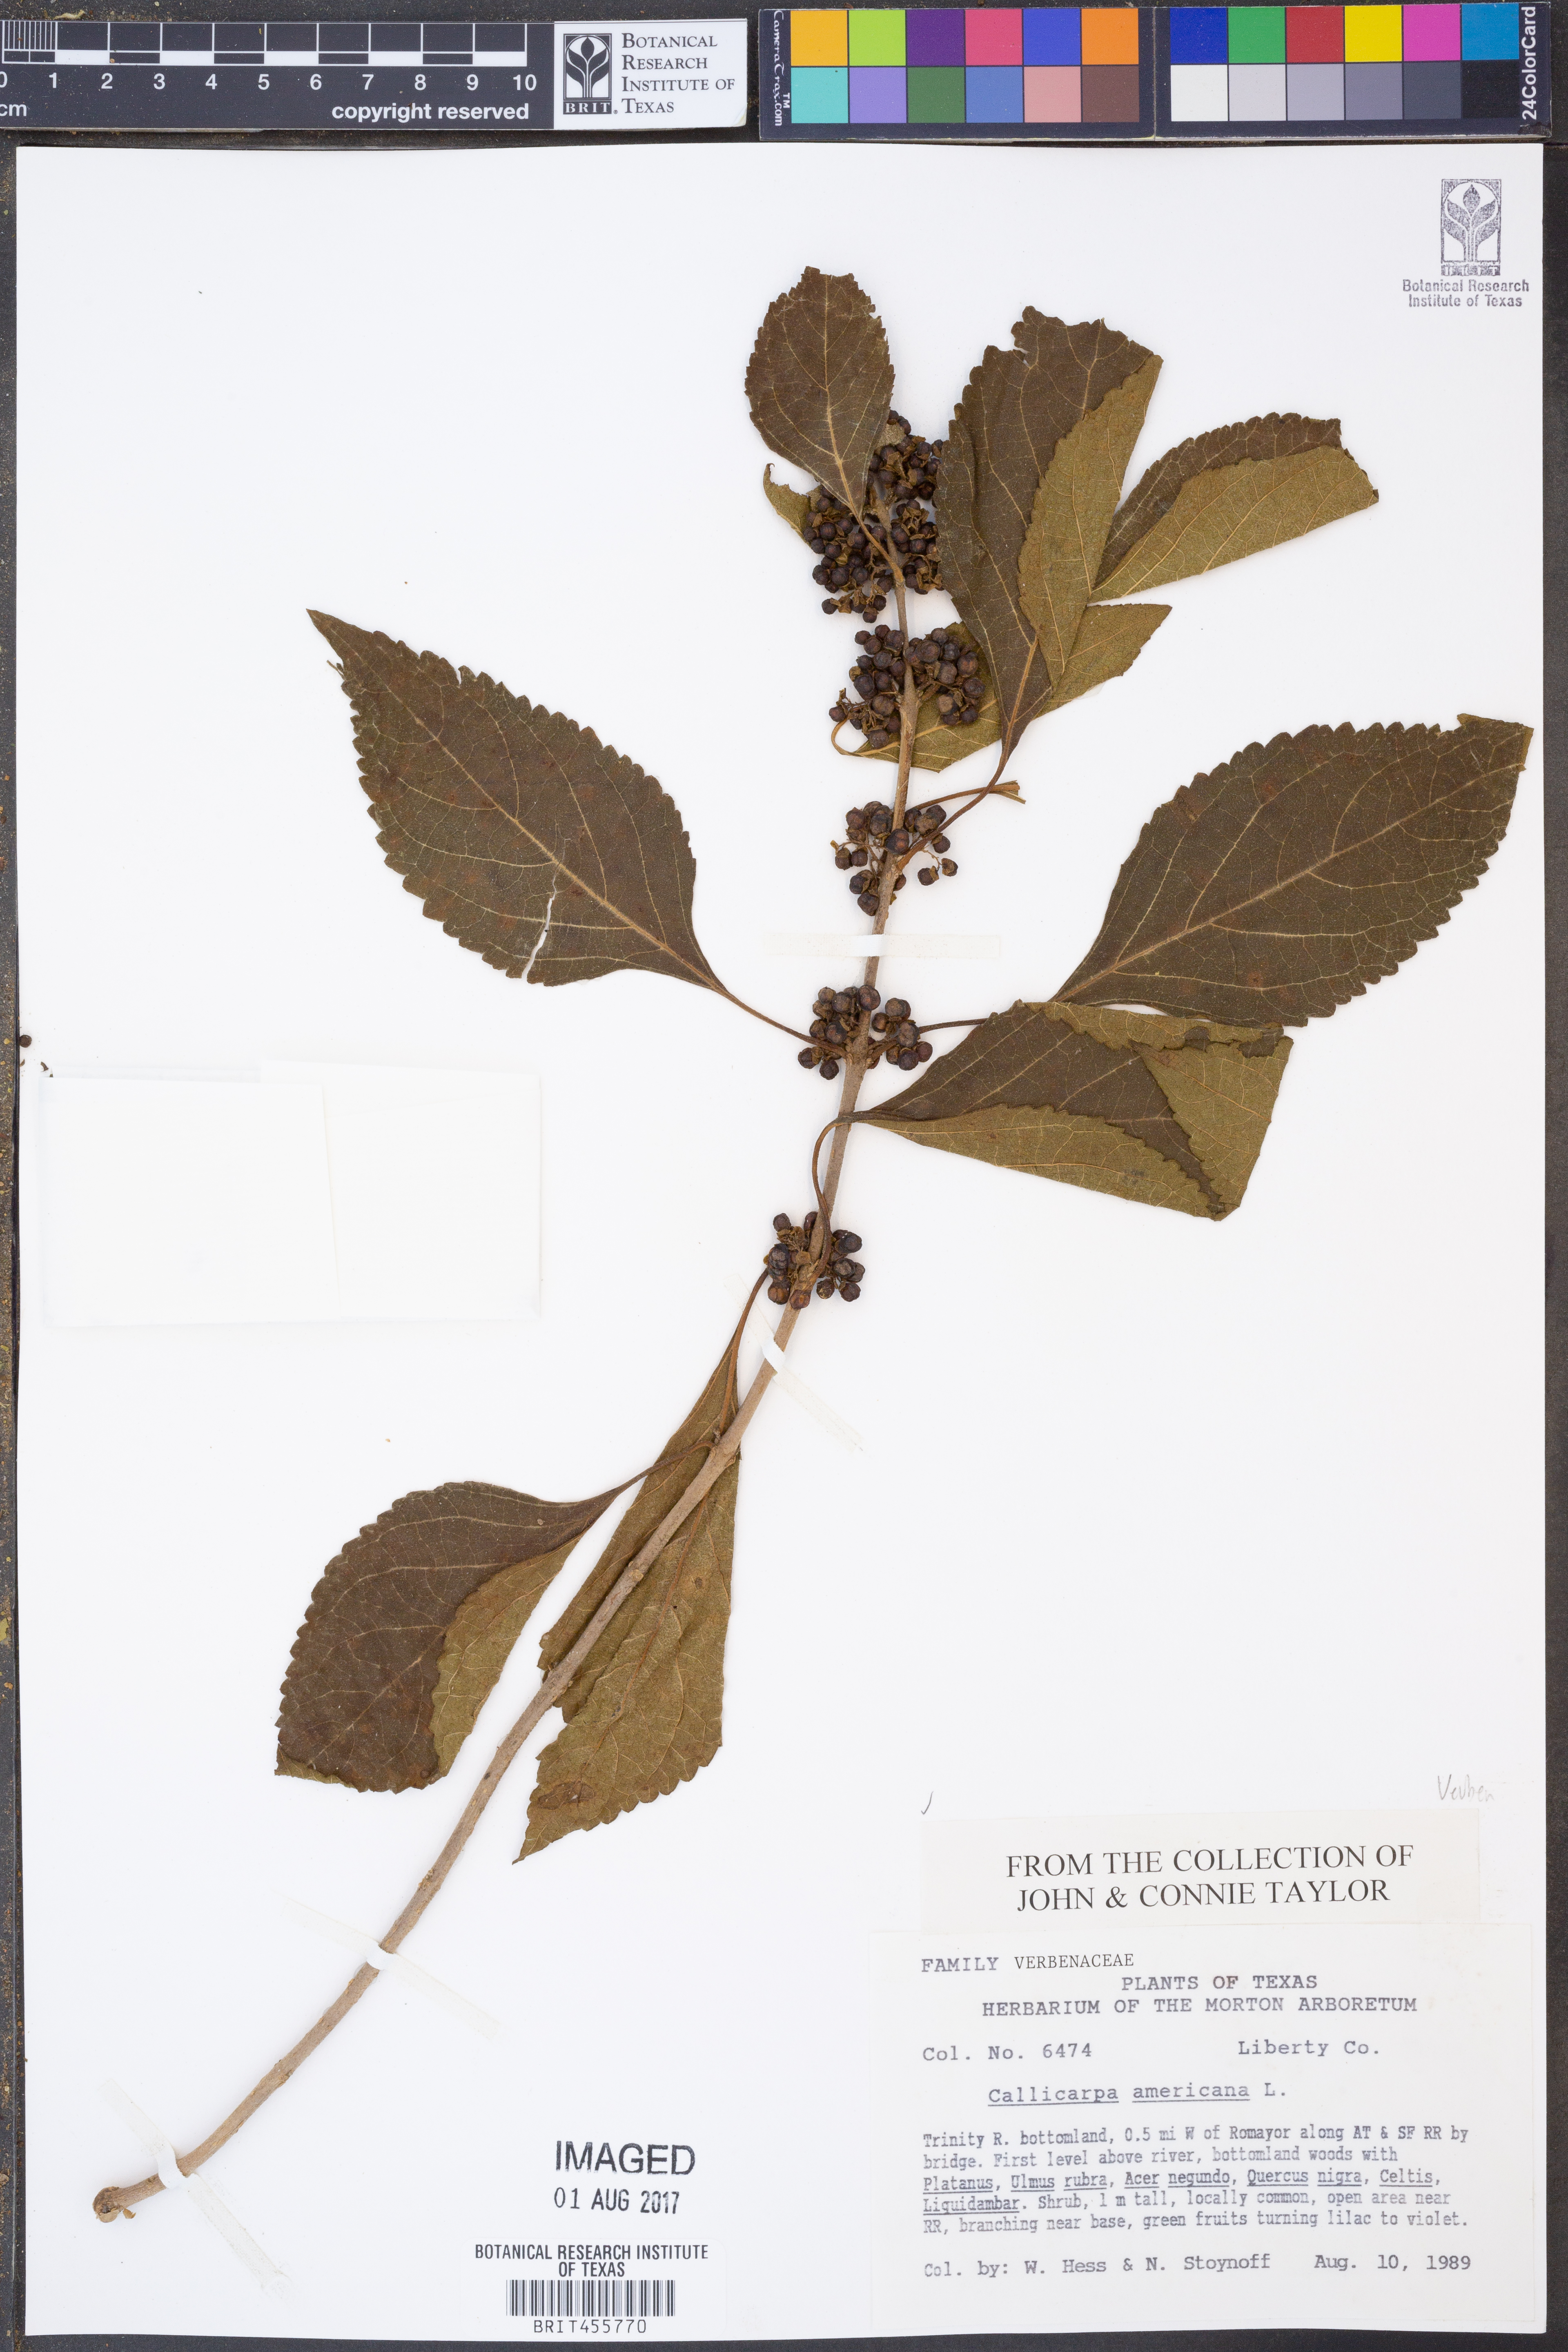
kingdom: Plantae
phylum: Tracheophyta
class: Magnoliopsida
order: Lamiales
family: Lamiaceae
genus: Callicarpa
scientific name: Callicarpa americana
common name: American beautyberry
